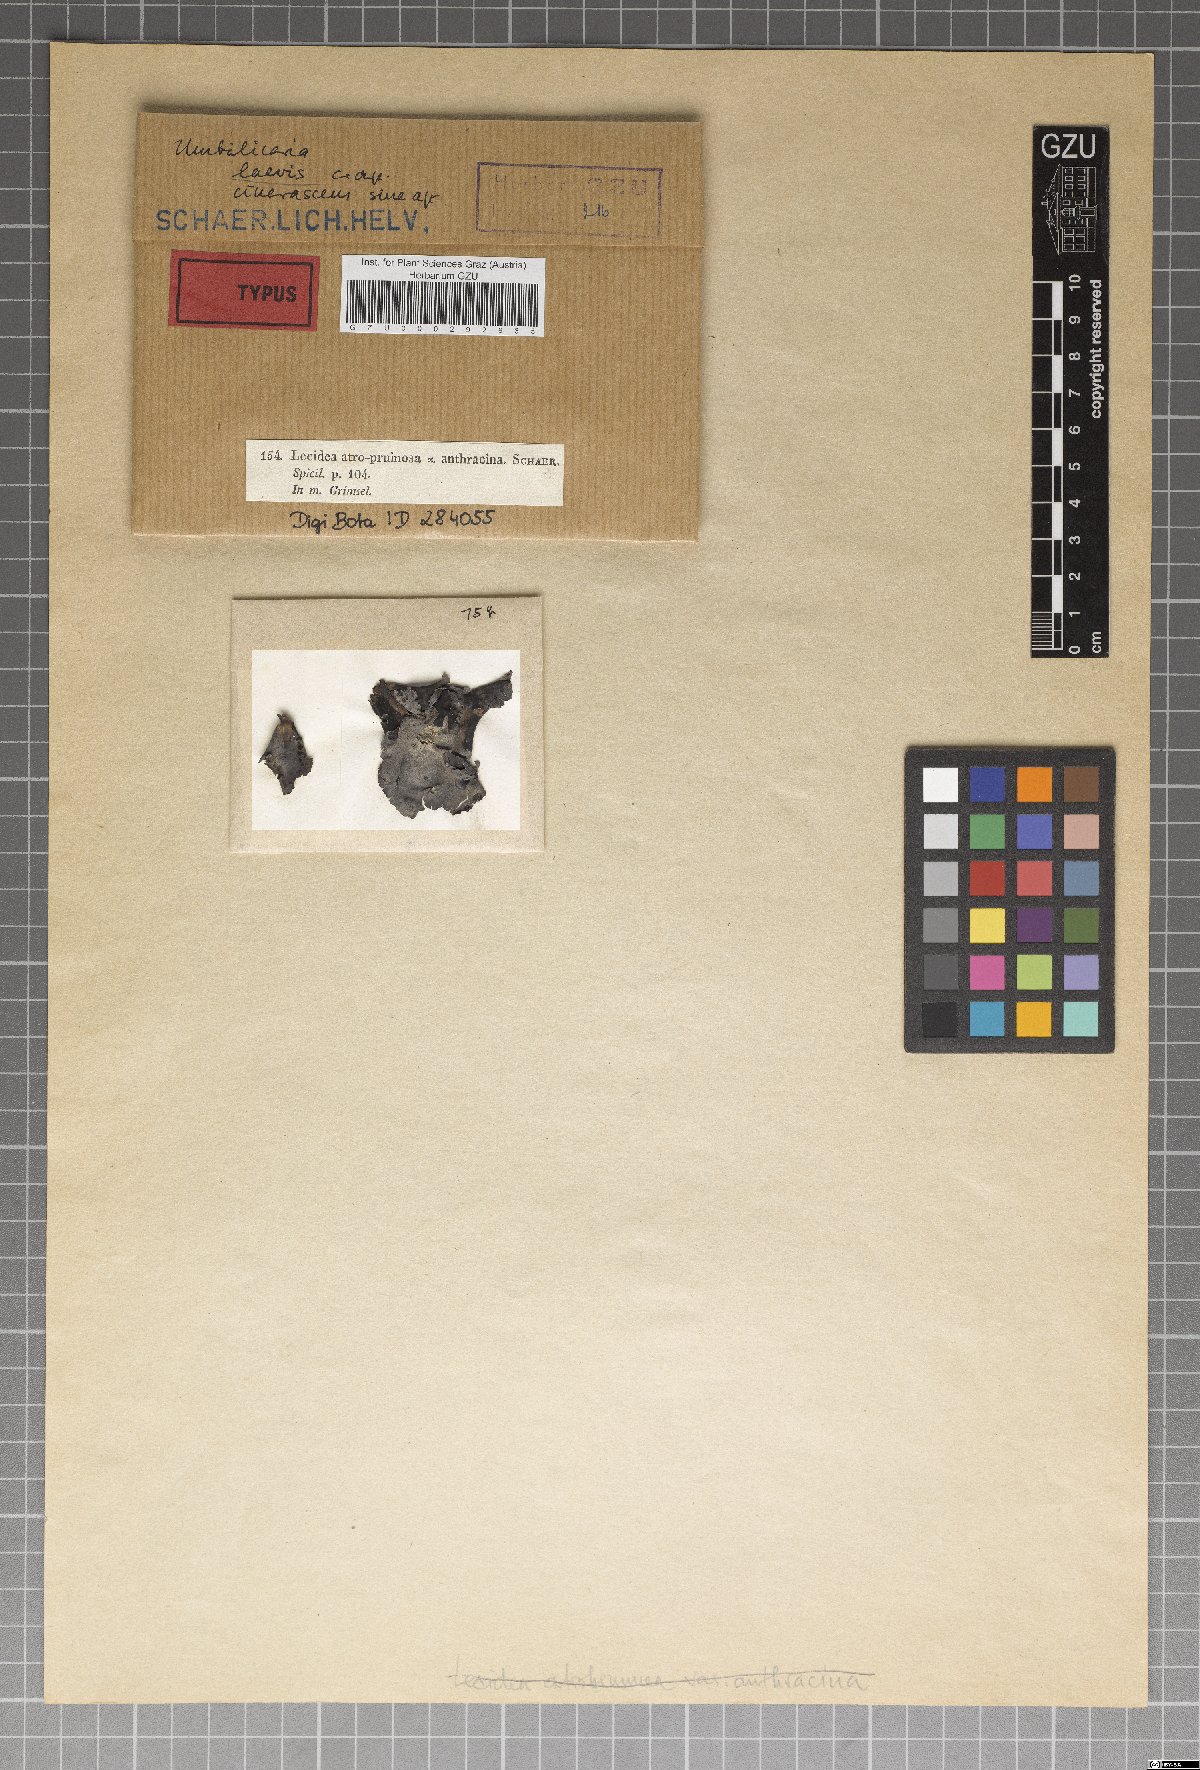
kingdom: Fungi
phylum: Ascomycota
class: Lecanoromycetes
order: Lecideales
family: Lecideaceae
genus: Lecidea
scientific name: Lecidea
